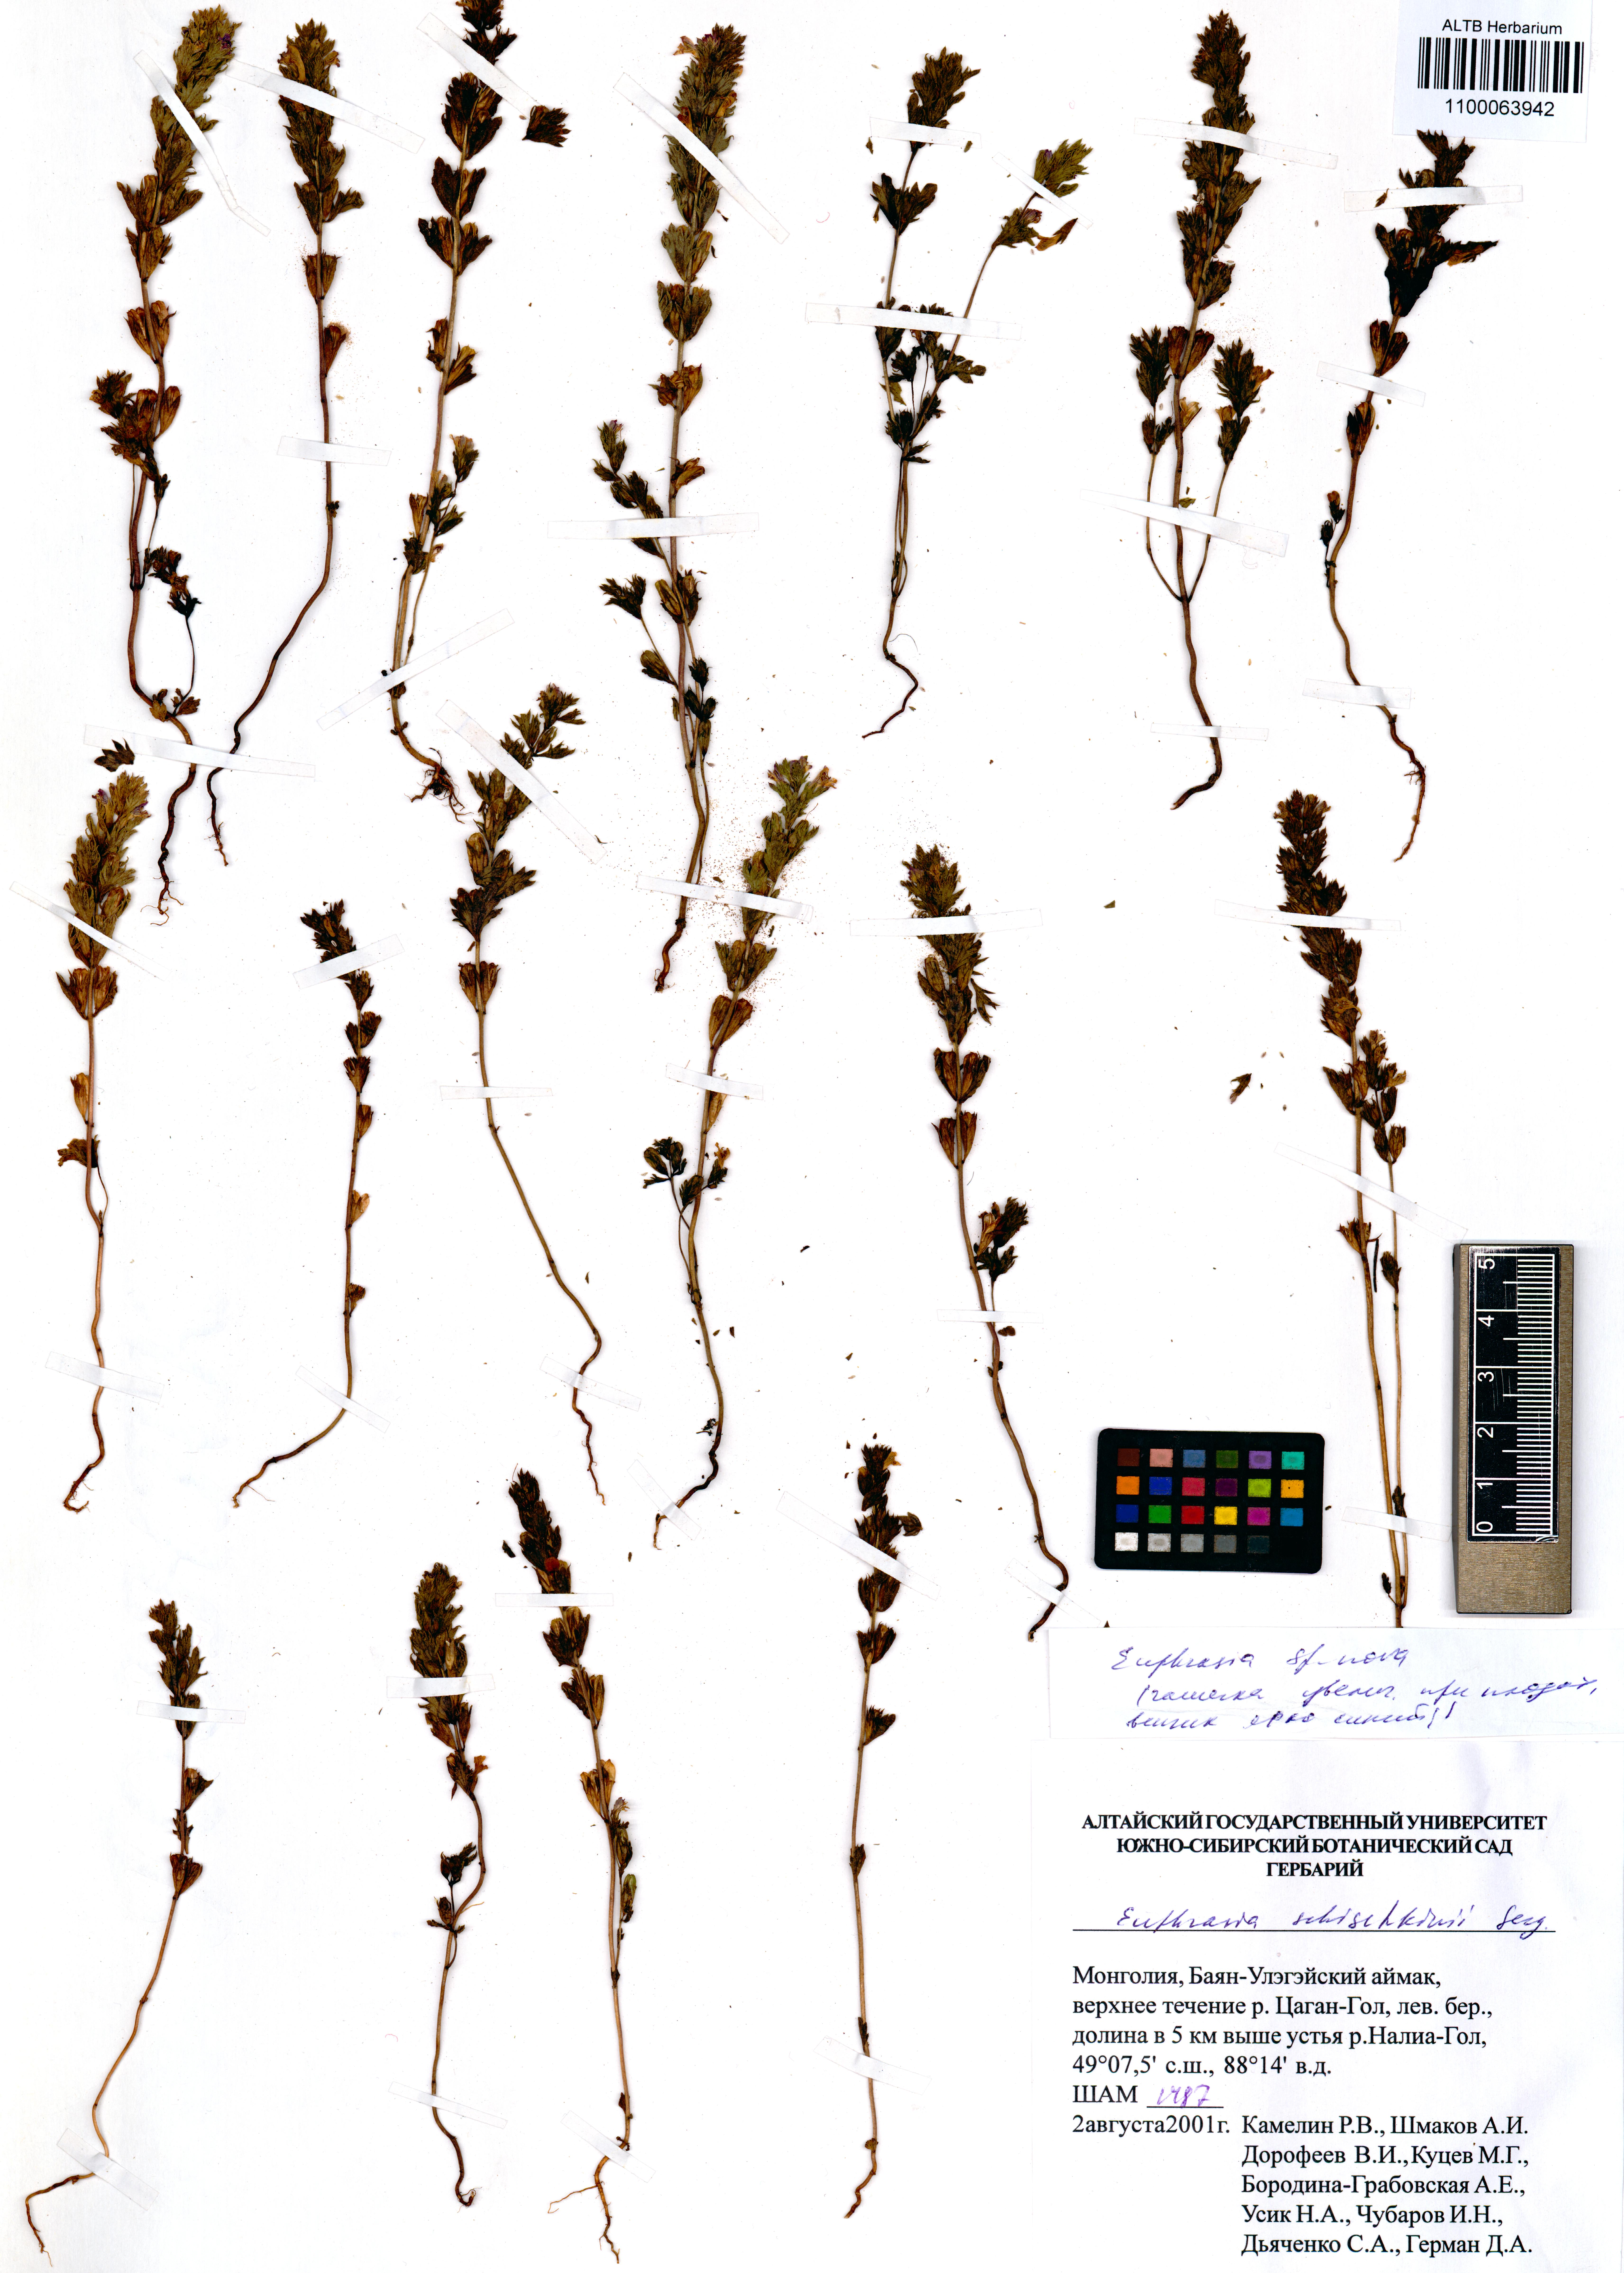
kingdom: Plantae
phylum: Tracheophyta
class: Magnoliopsida
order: Lamiales
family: Orobanchaceae
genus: Euphrasia
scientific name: Euphrasia schischkinii
